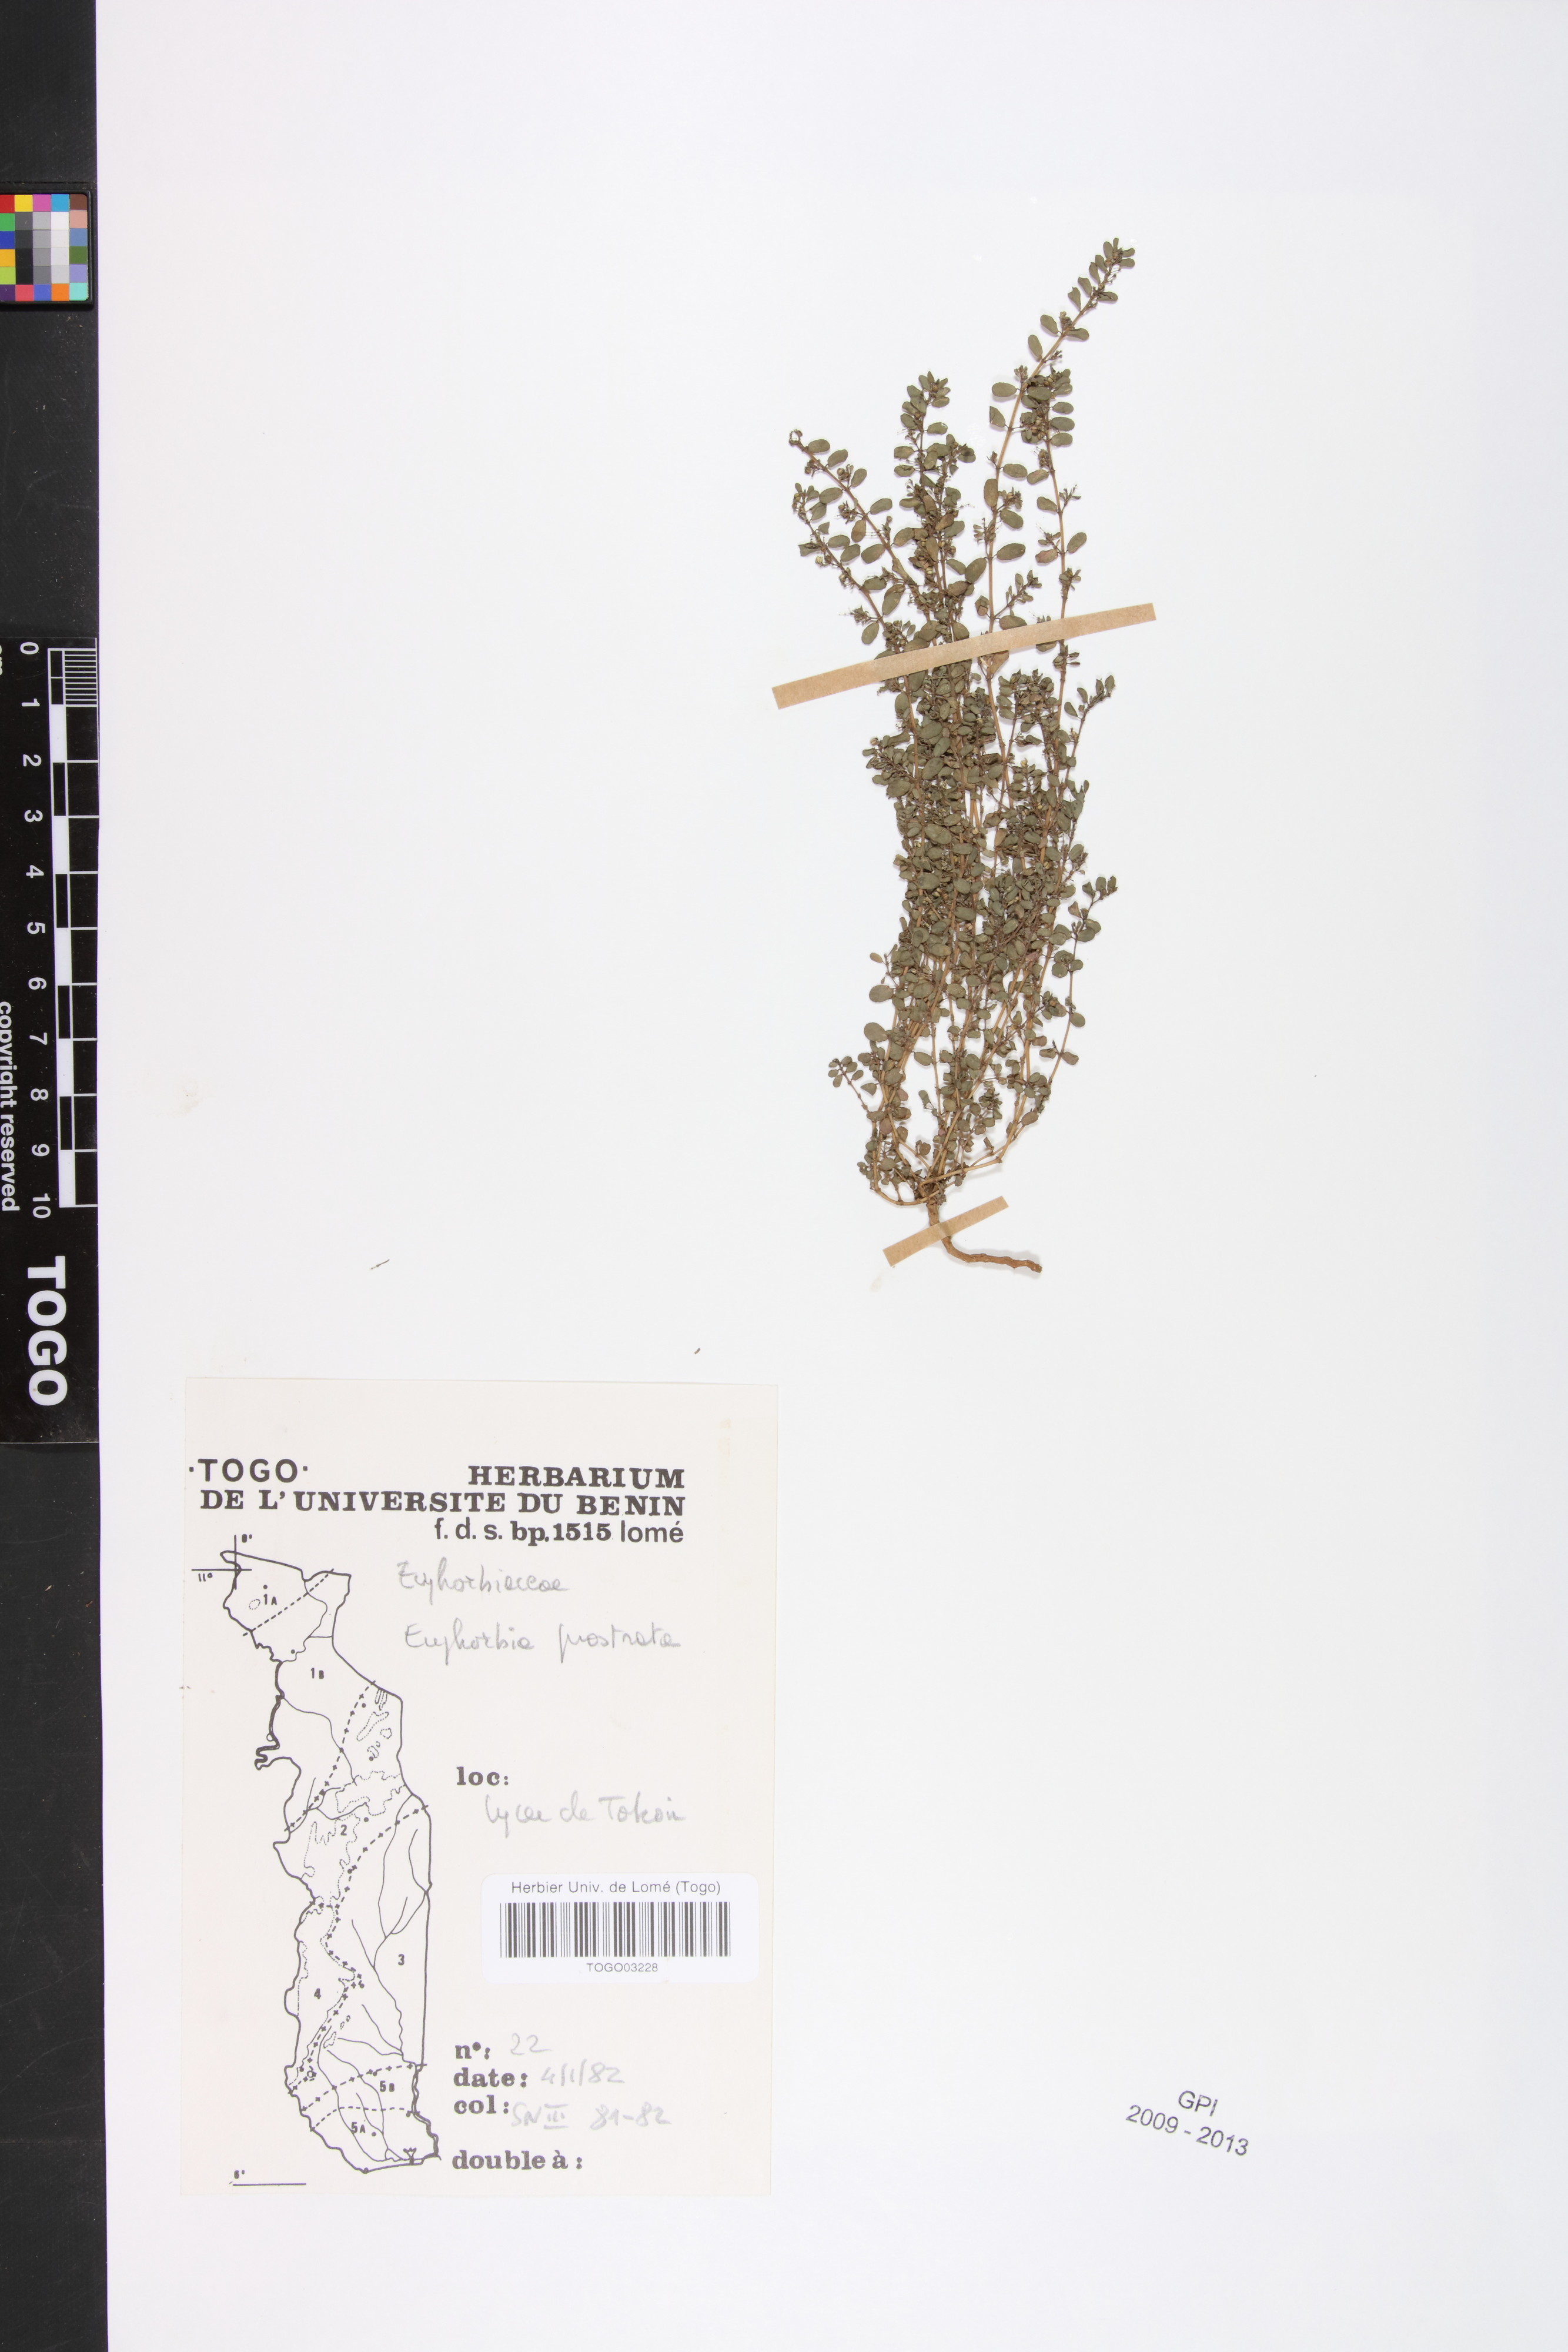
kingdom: Plantae
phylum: Tracheophyta
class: Magnoliopsida
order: Malpighiales
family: Euphorbiaceae
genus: Euphorbia
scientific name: Euphorbia prostrata
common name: Prostrate sandmat
